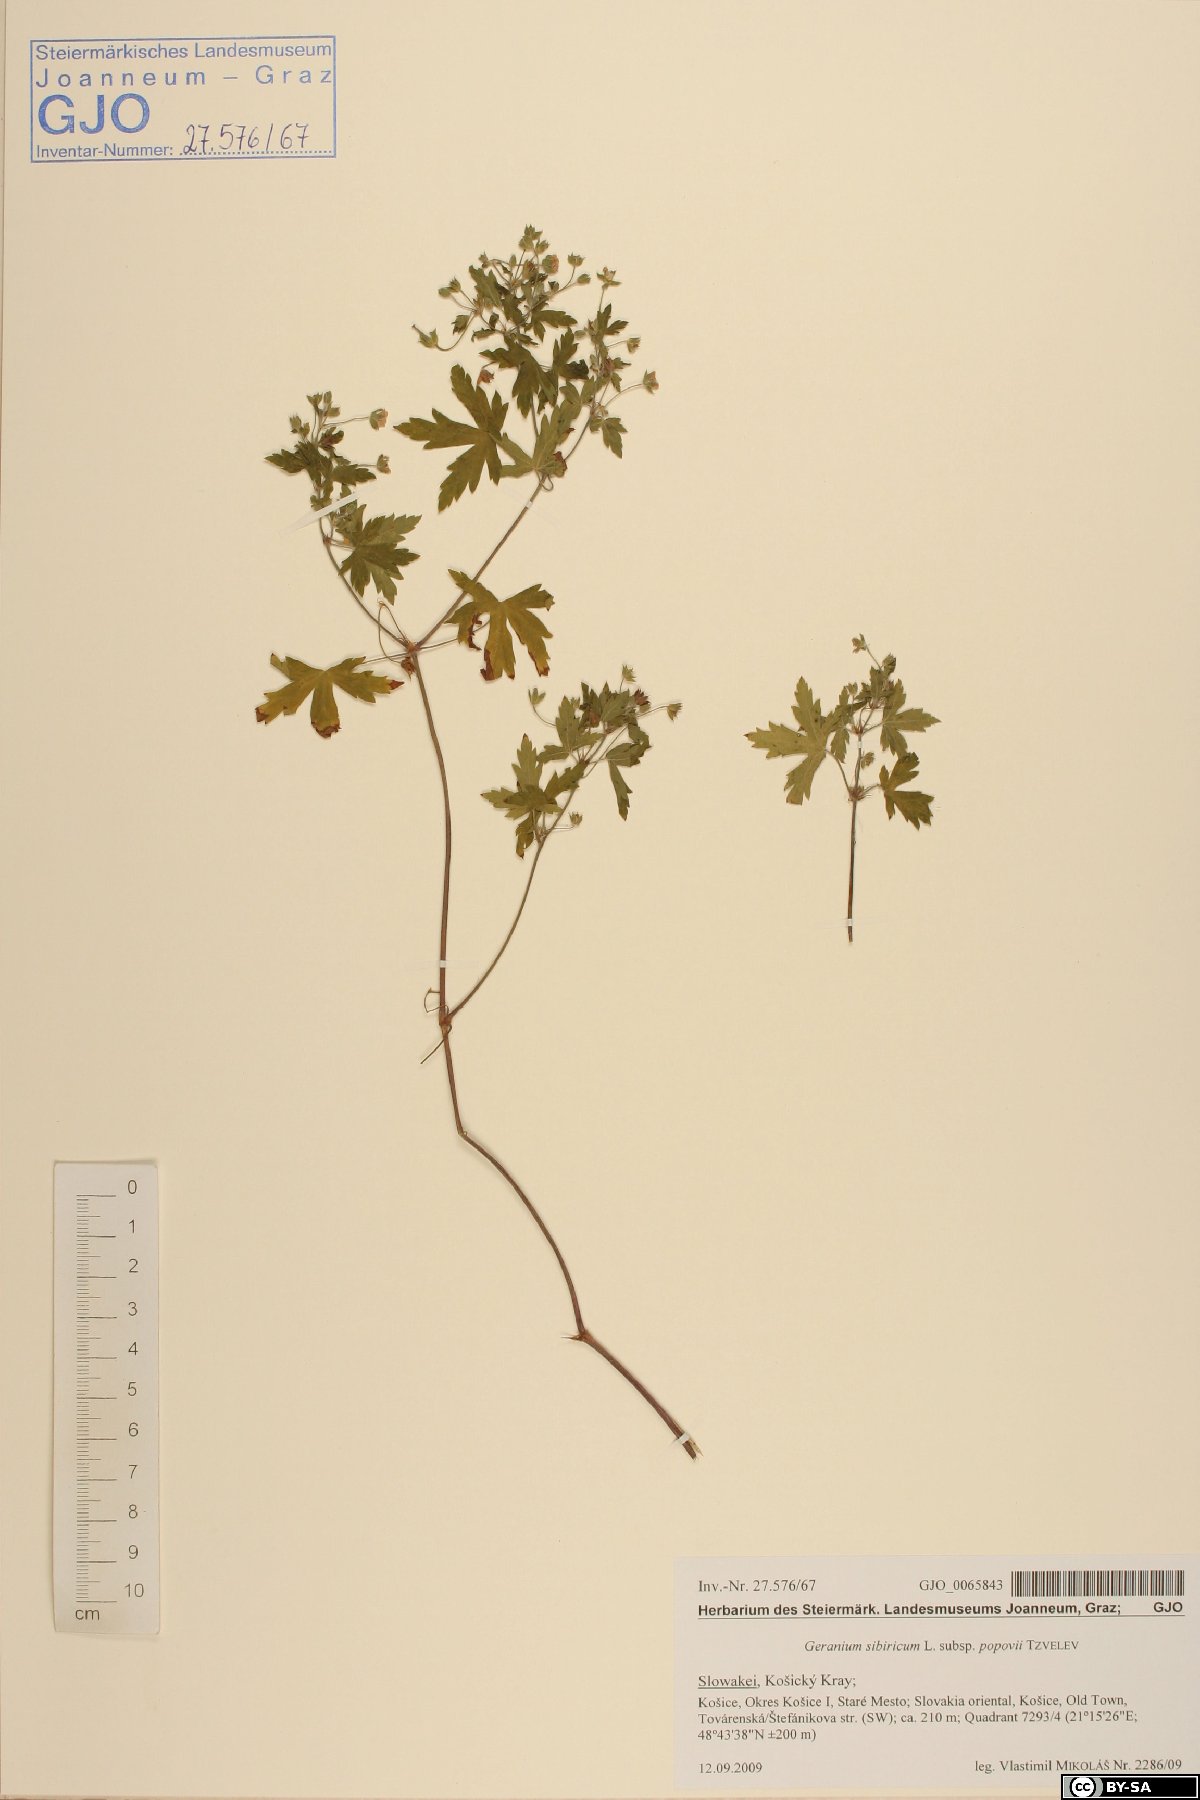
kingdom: Plantae
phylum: Tracheophyta
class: Magnoliopsida
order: Geraniales
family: Geraniaceae
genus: Geranium
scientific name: Geranium sibiricum
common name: Siberian crane's-bill
